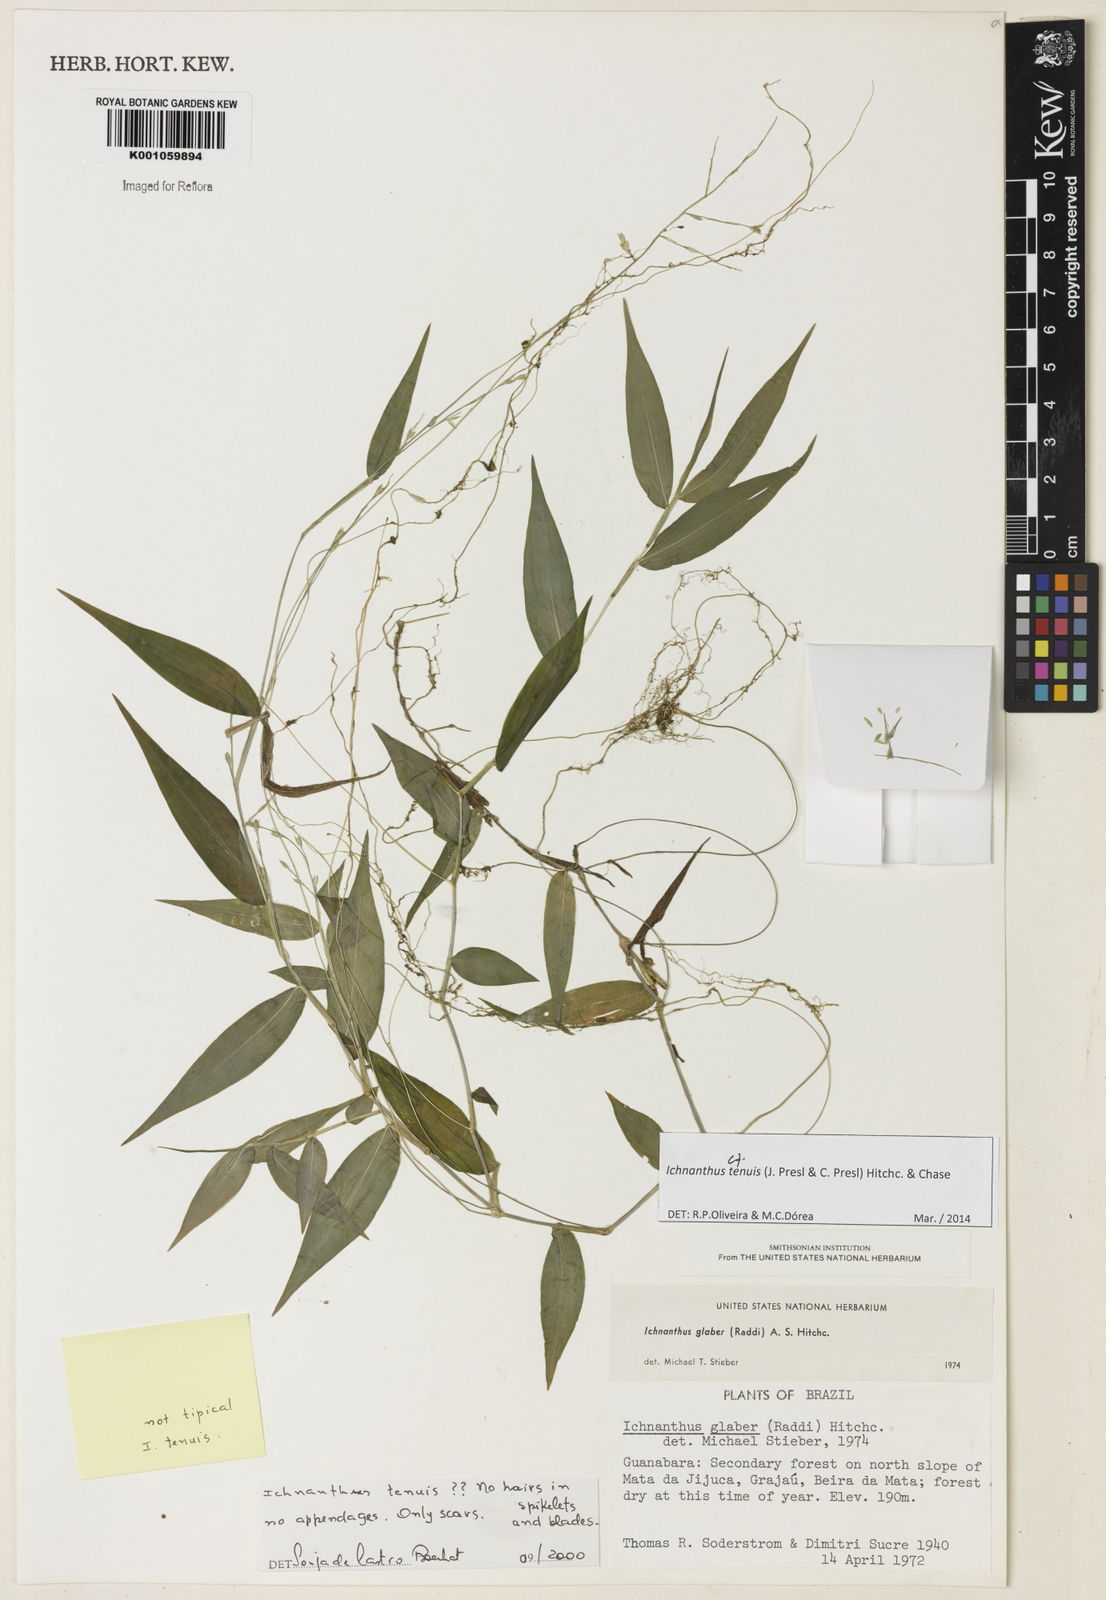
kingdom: Plantae
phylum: Tracheophyta
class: Liliopsida
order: Poales
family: Poaceae
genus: Ichnanthus
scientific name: Ichnanthus tenuis
